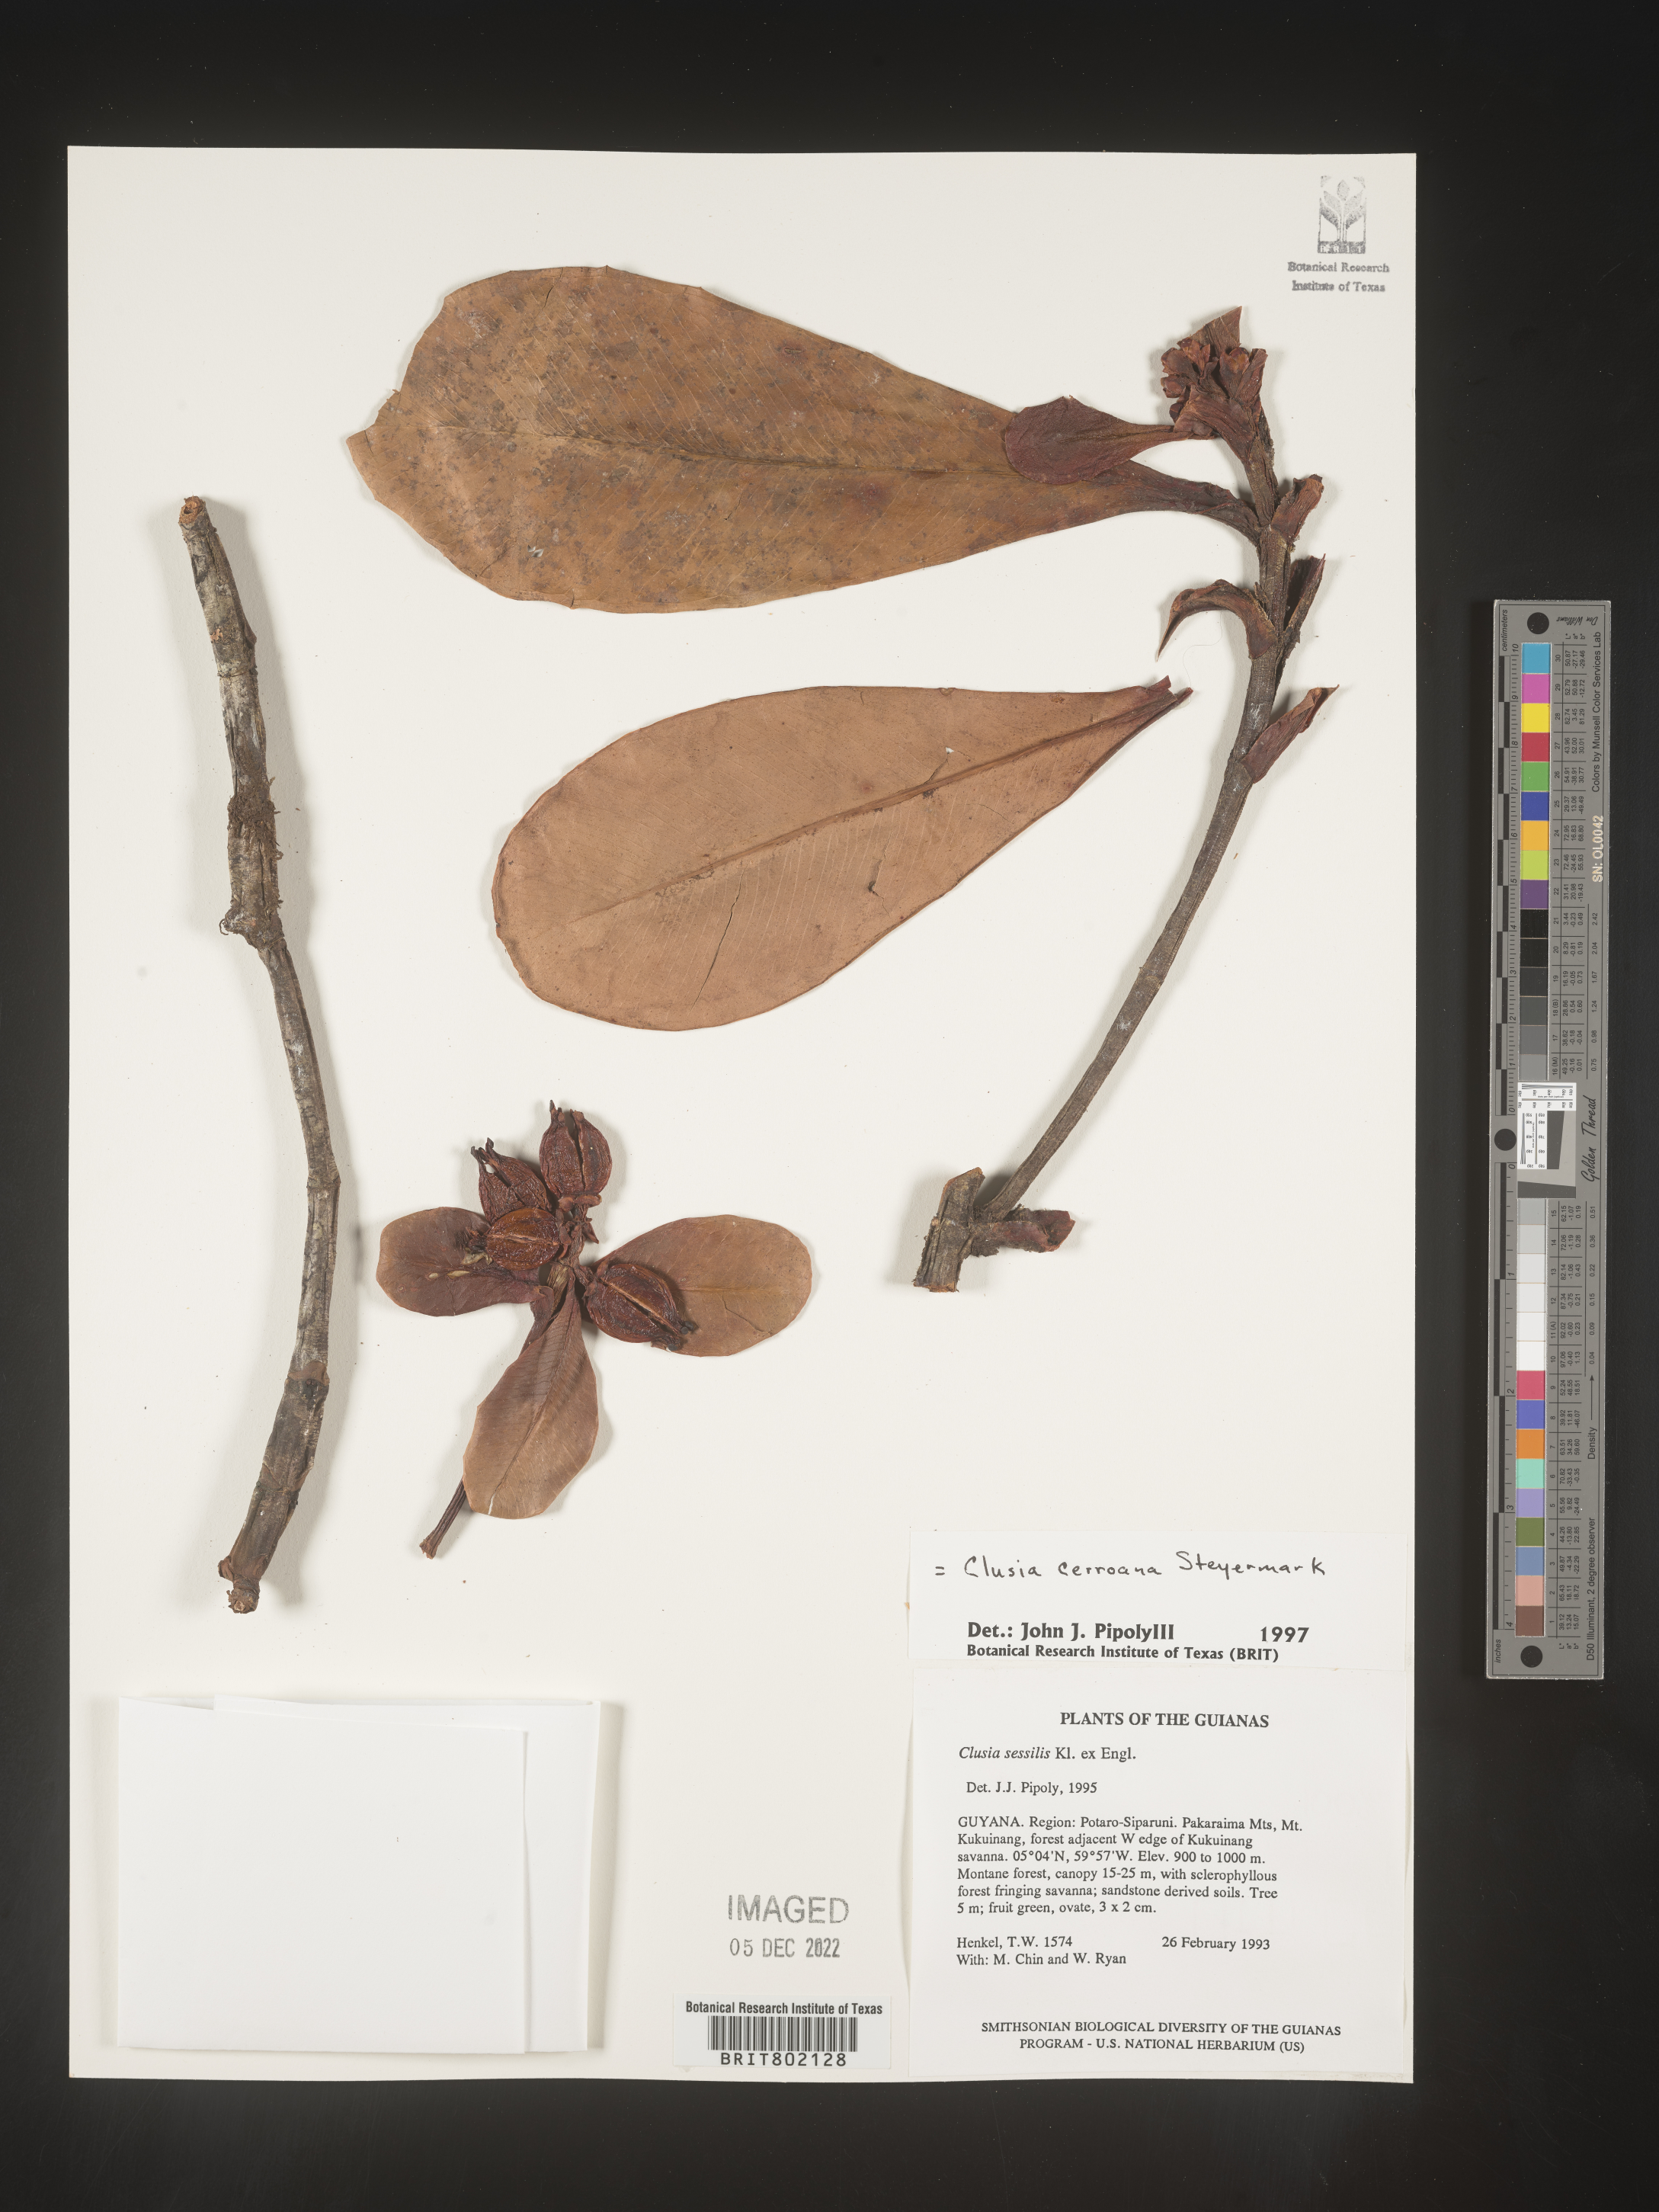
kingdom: Plantae
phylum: Tracheophyta
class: Magnoliopsida
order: Malpighiales
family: Clusiaceae
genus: Clusia
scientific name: Clusia cerroana
